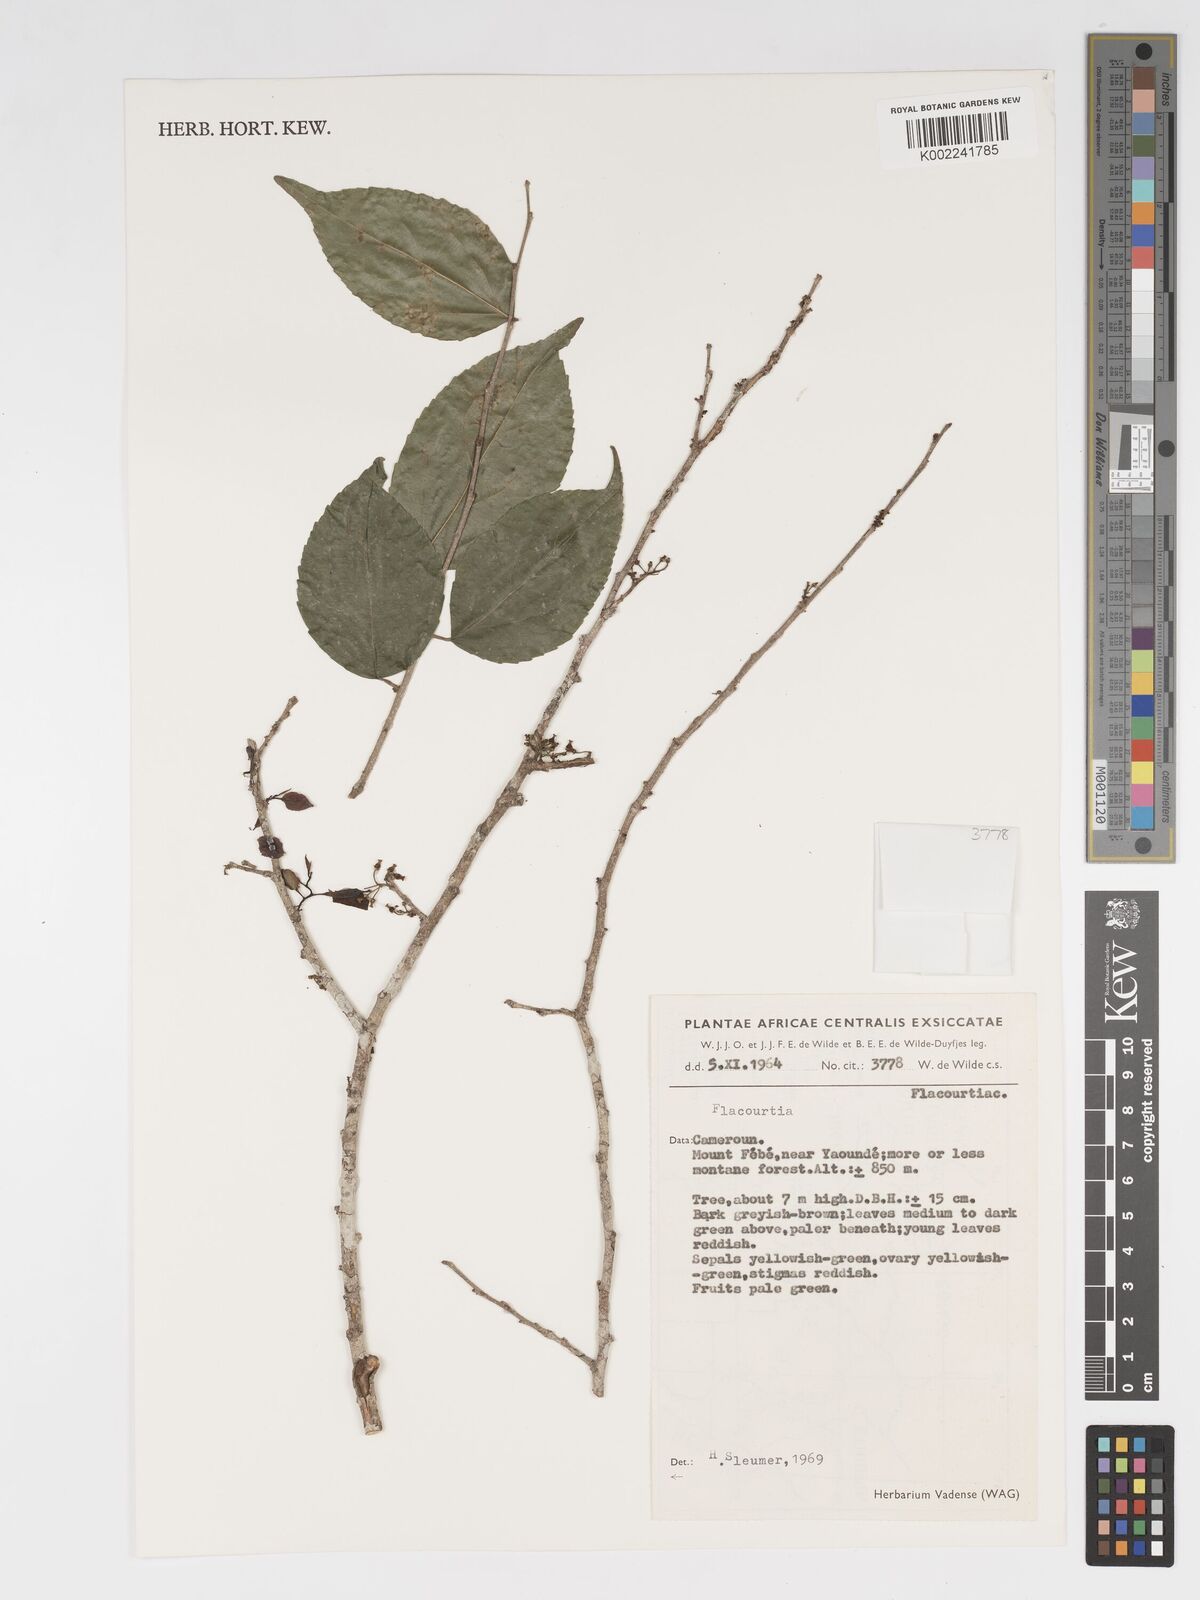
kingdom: Plantae
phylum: Tracheophyta
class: Magnoliopsida
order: Malpighiales
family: Salicaceae
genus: Flacourtia
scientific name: Flacourtia
